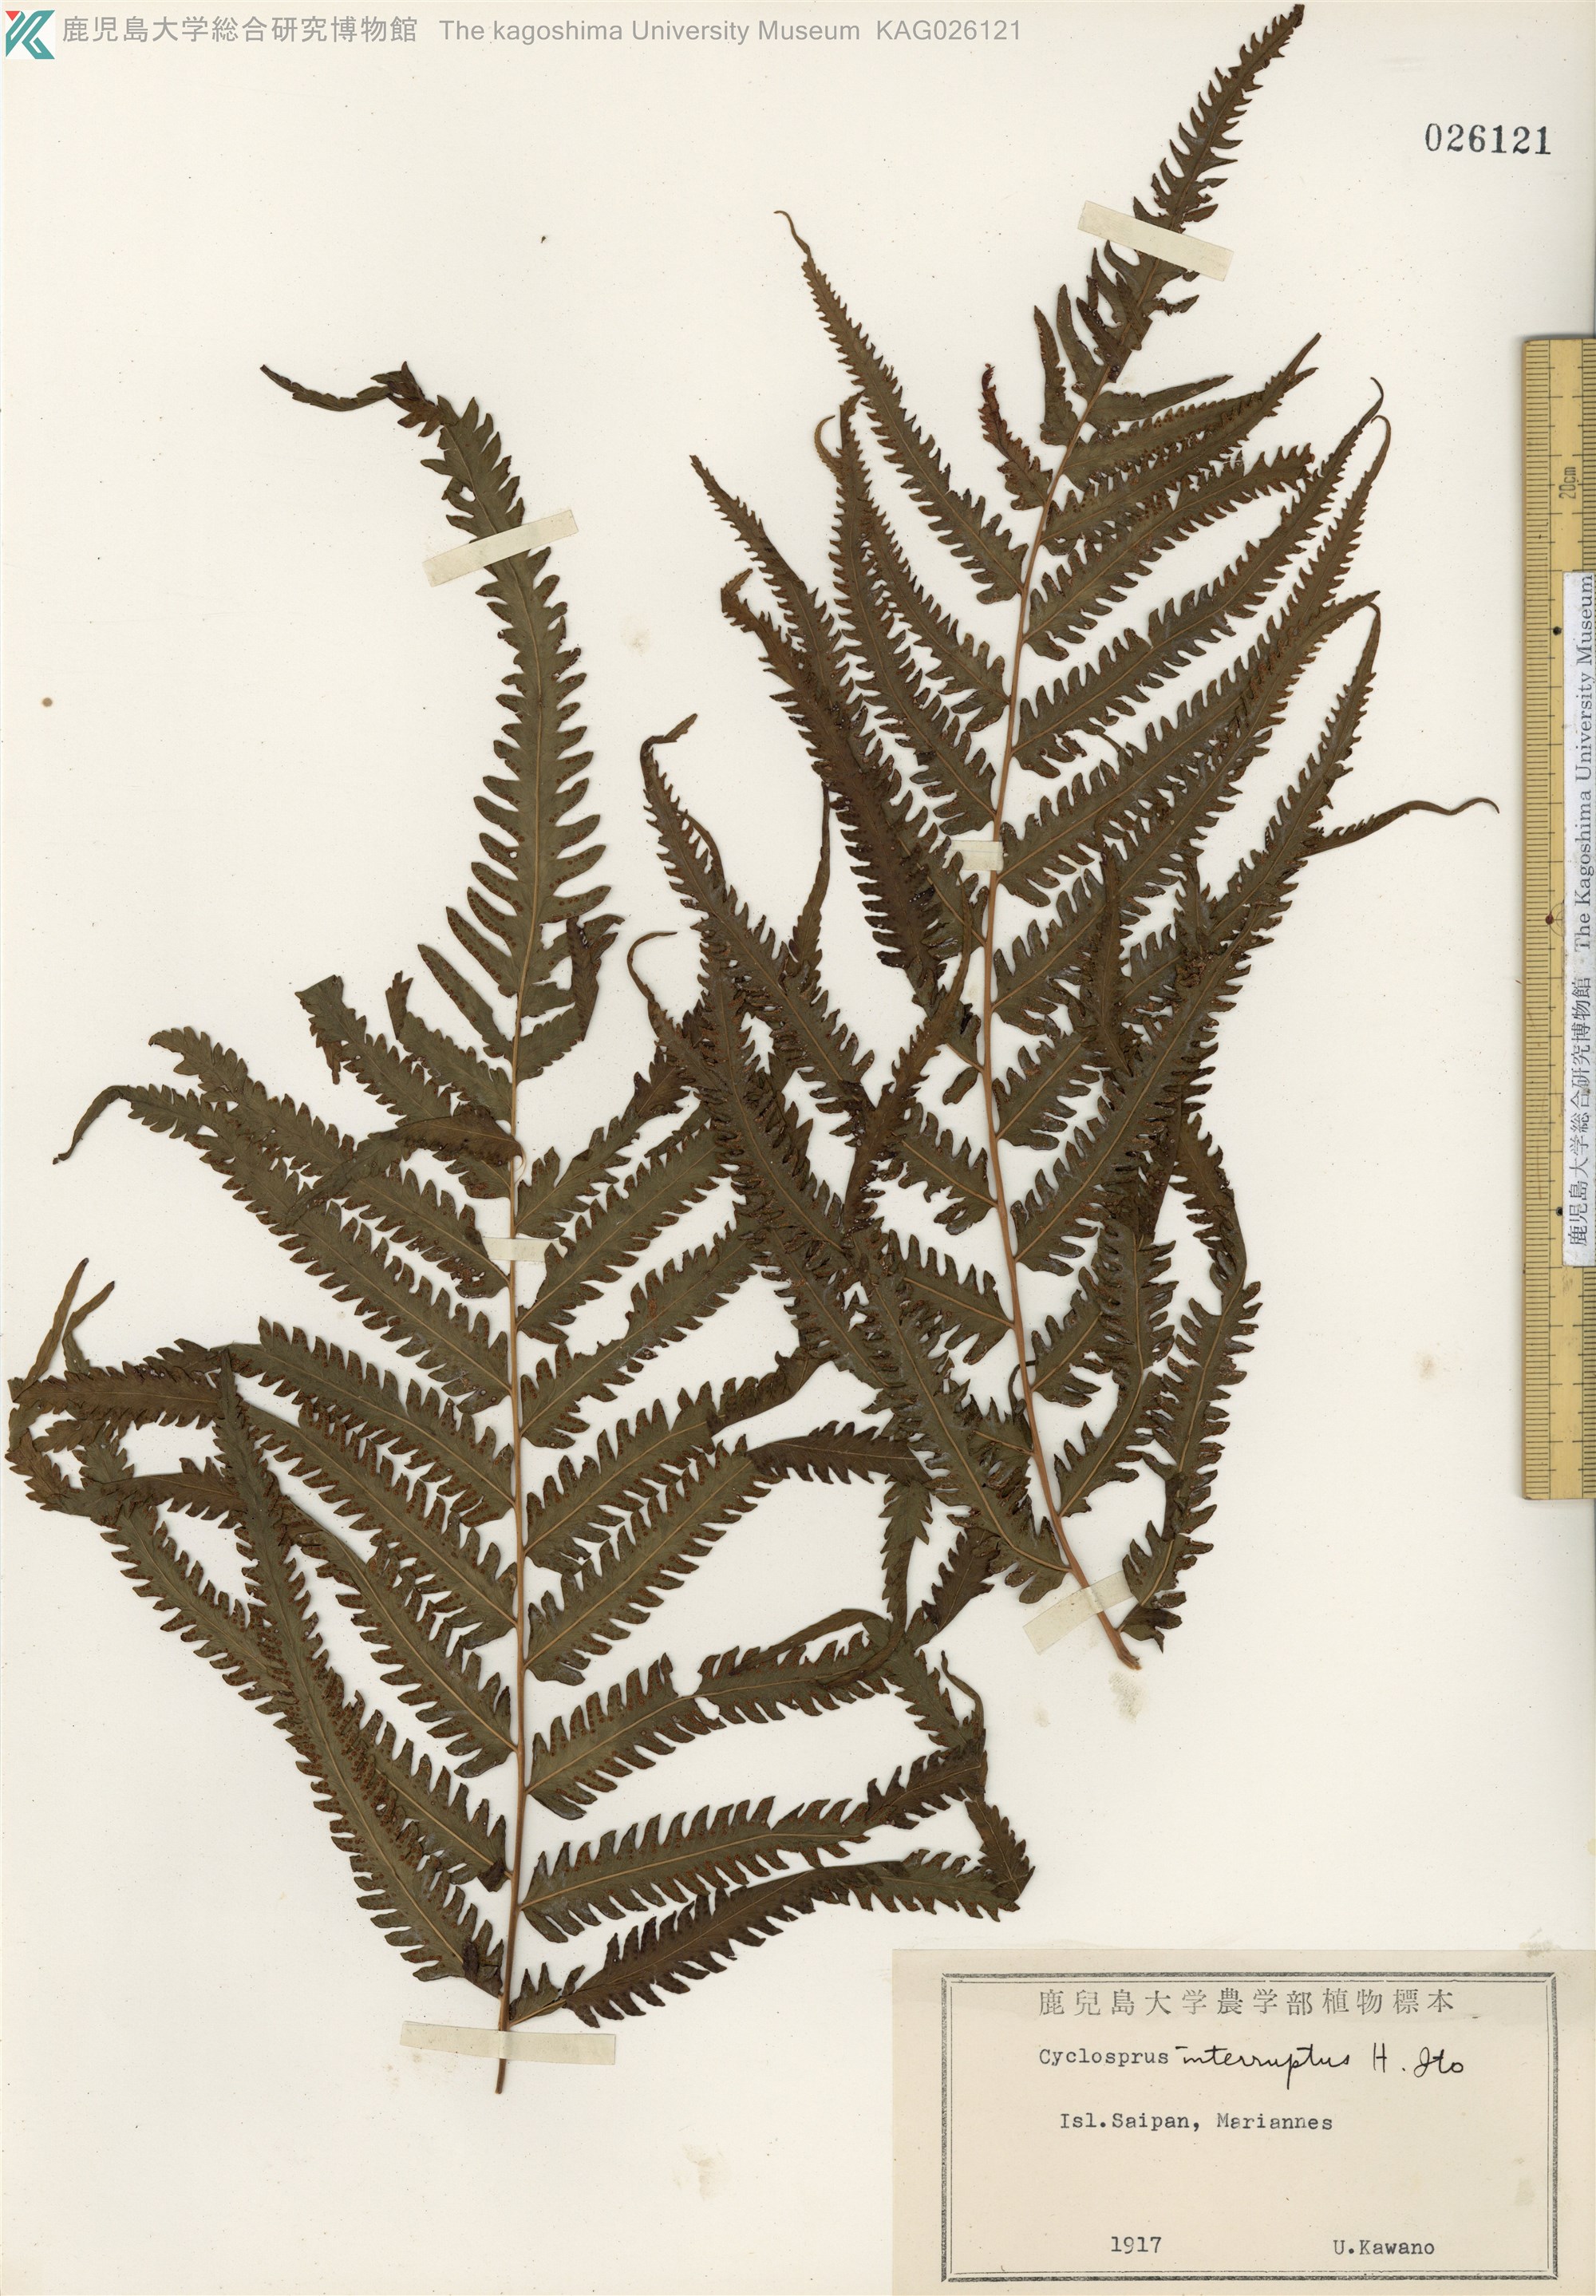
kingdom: Plantae
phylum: Tracheophyta
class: Polypodiopsida
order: Polypodiales
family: Thelypteridaceae
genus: Cyclosorus
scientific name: Cyclosorus interruptus
